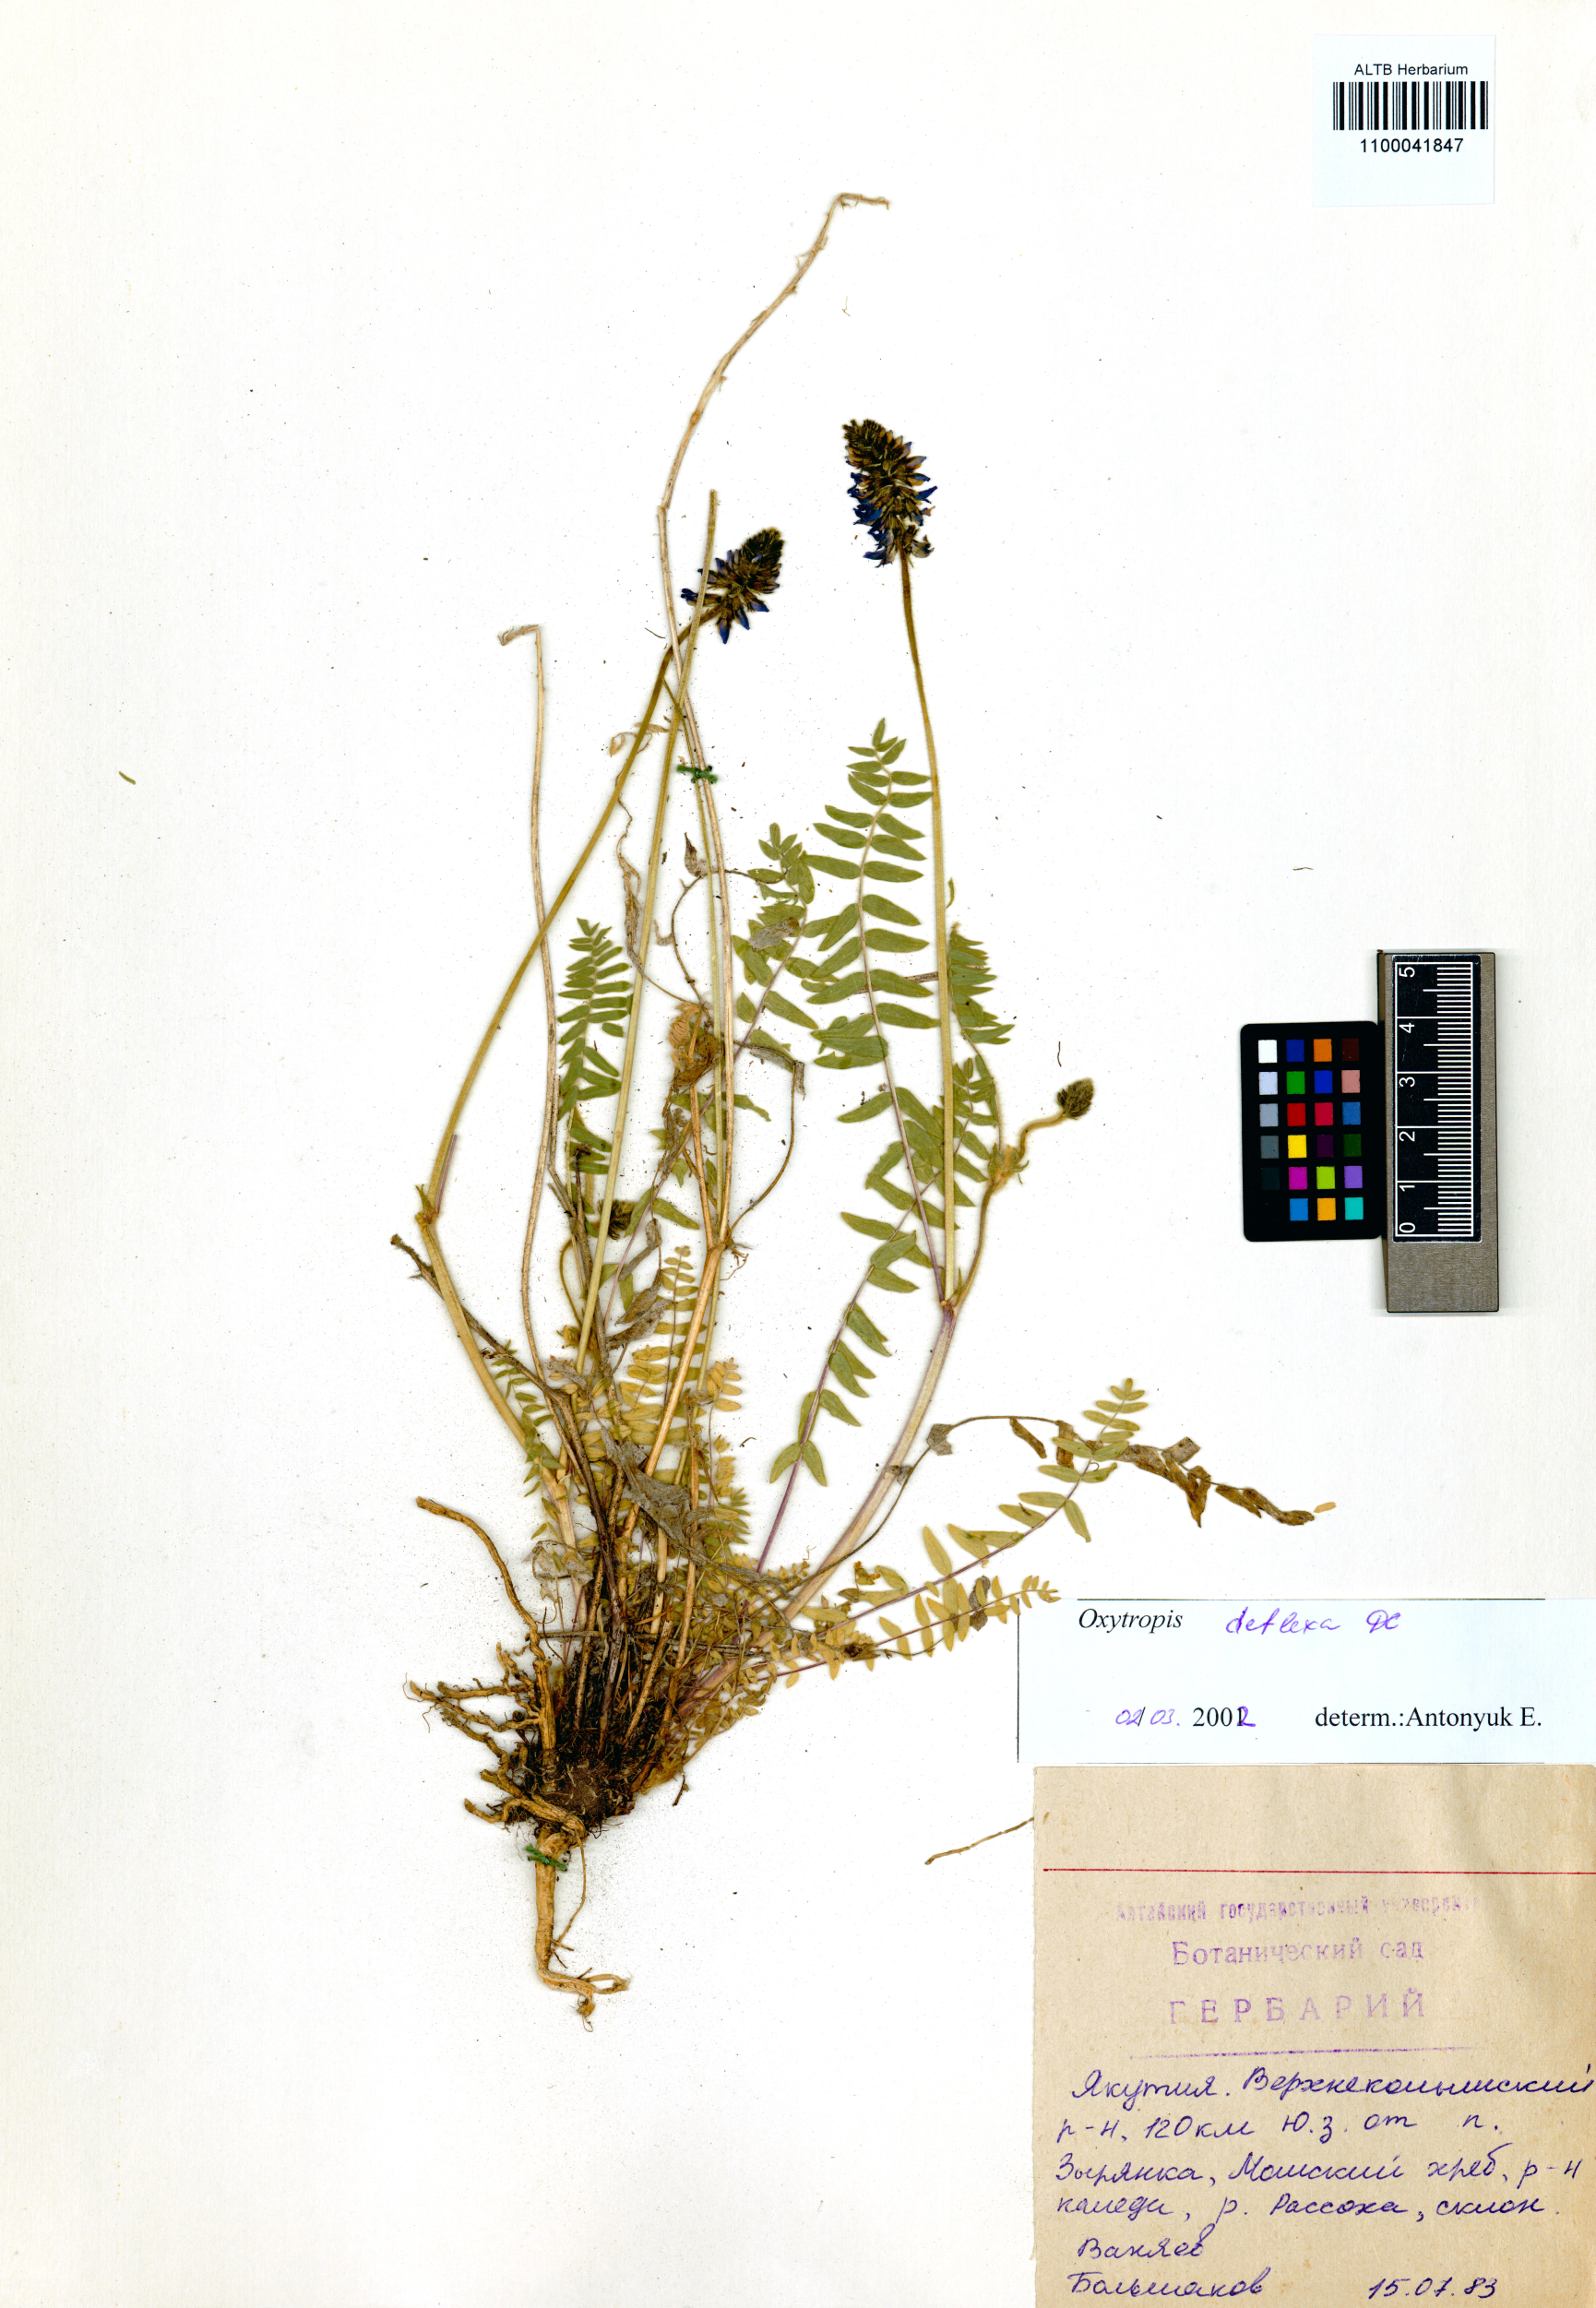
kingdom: Plantae
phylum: Tracheophyta
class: Magnoliopsida
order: Fabales
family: Fabaceae
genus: Oxytropis
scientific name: Oxytropis deflexa
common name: Stemmed oxytrope
